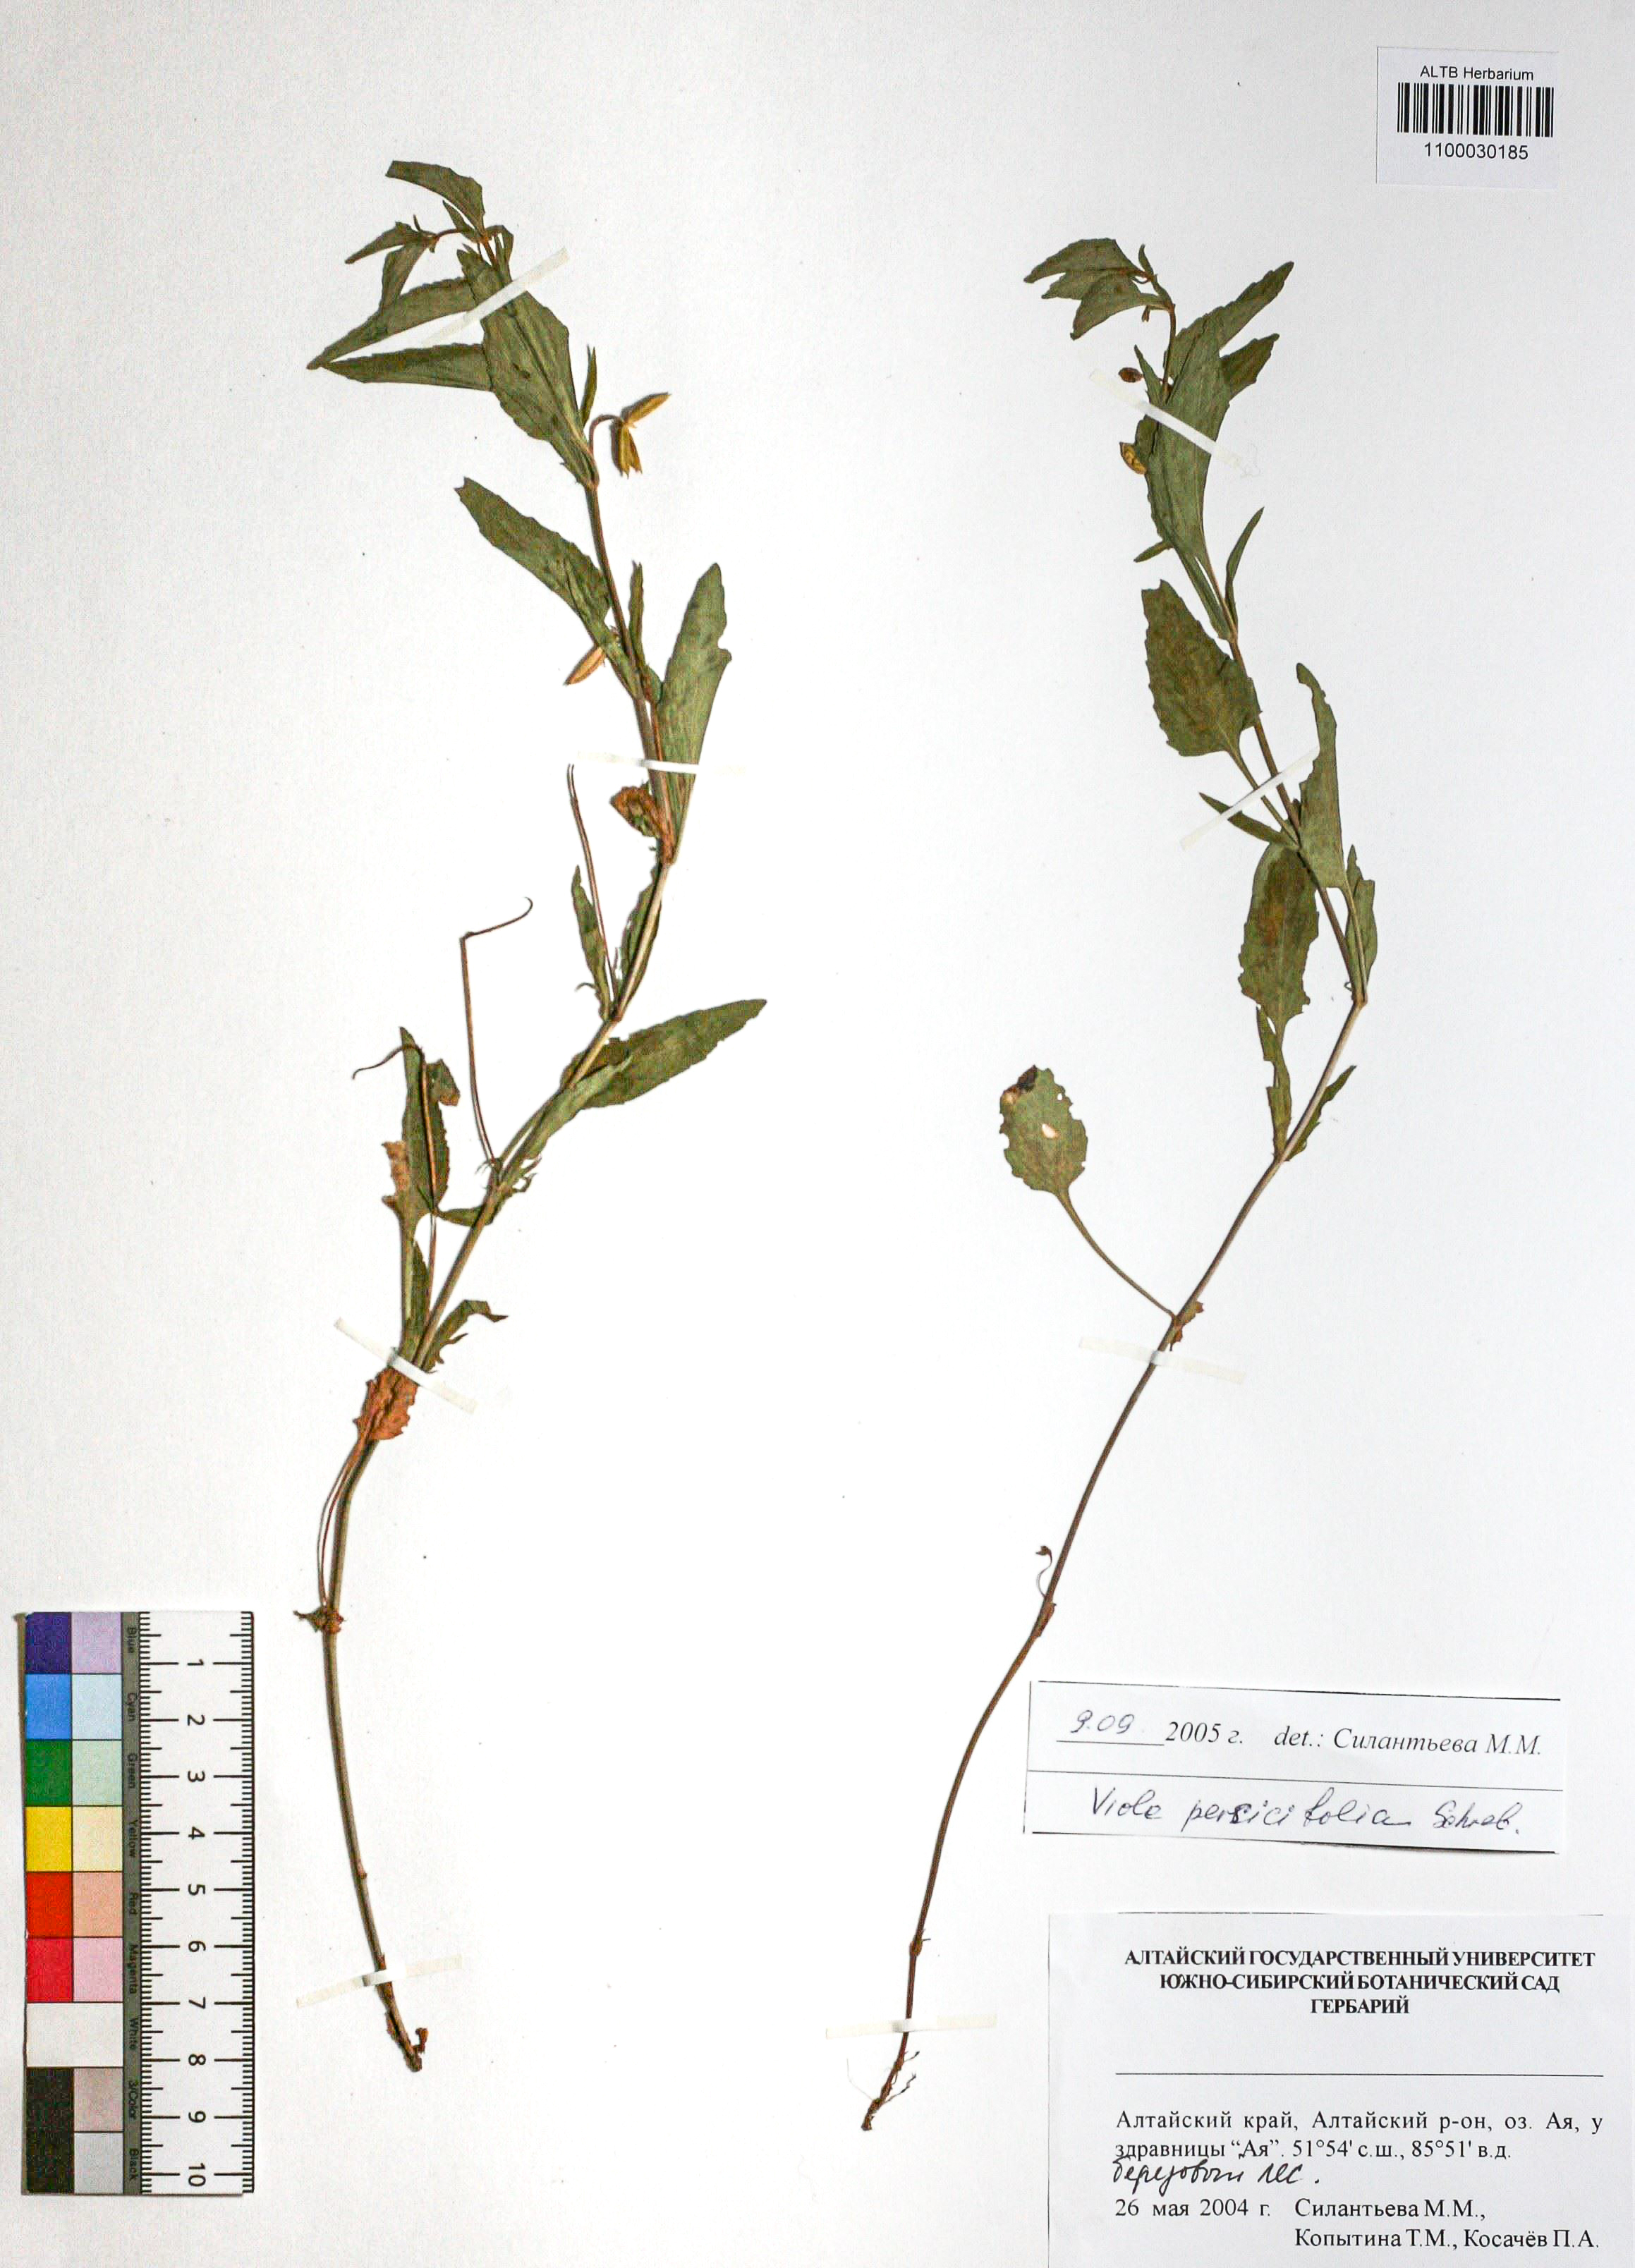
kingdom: Plantae
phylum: Tracheophyta
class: Magnoliopsida
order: Malpighiales
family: Violaceae
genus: Viola
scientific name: Viola stagnina
